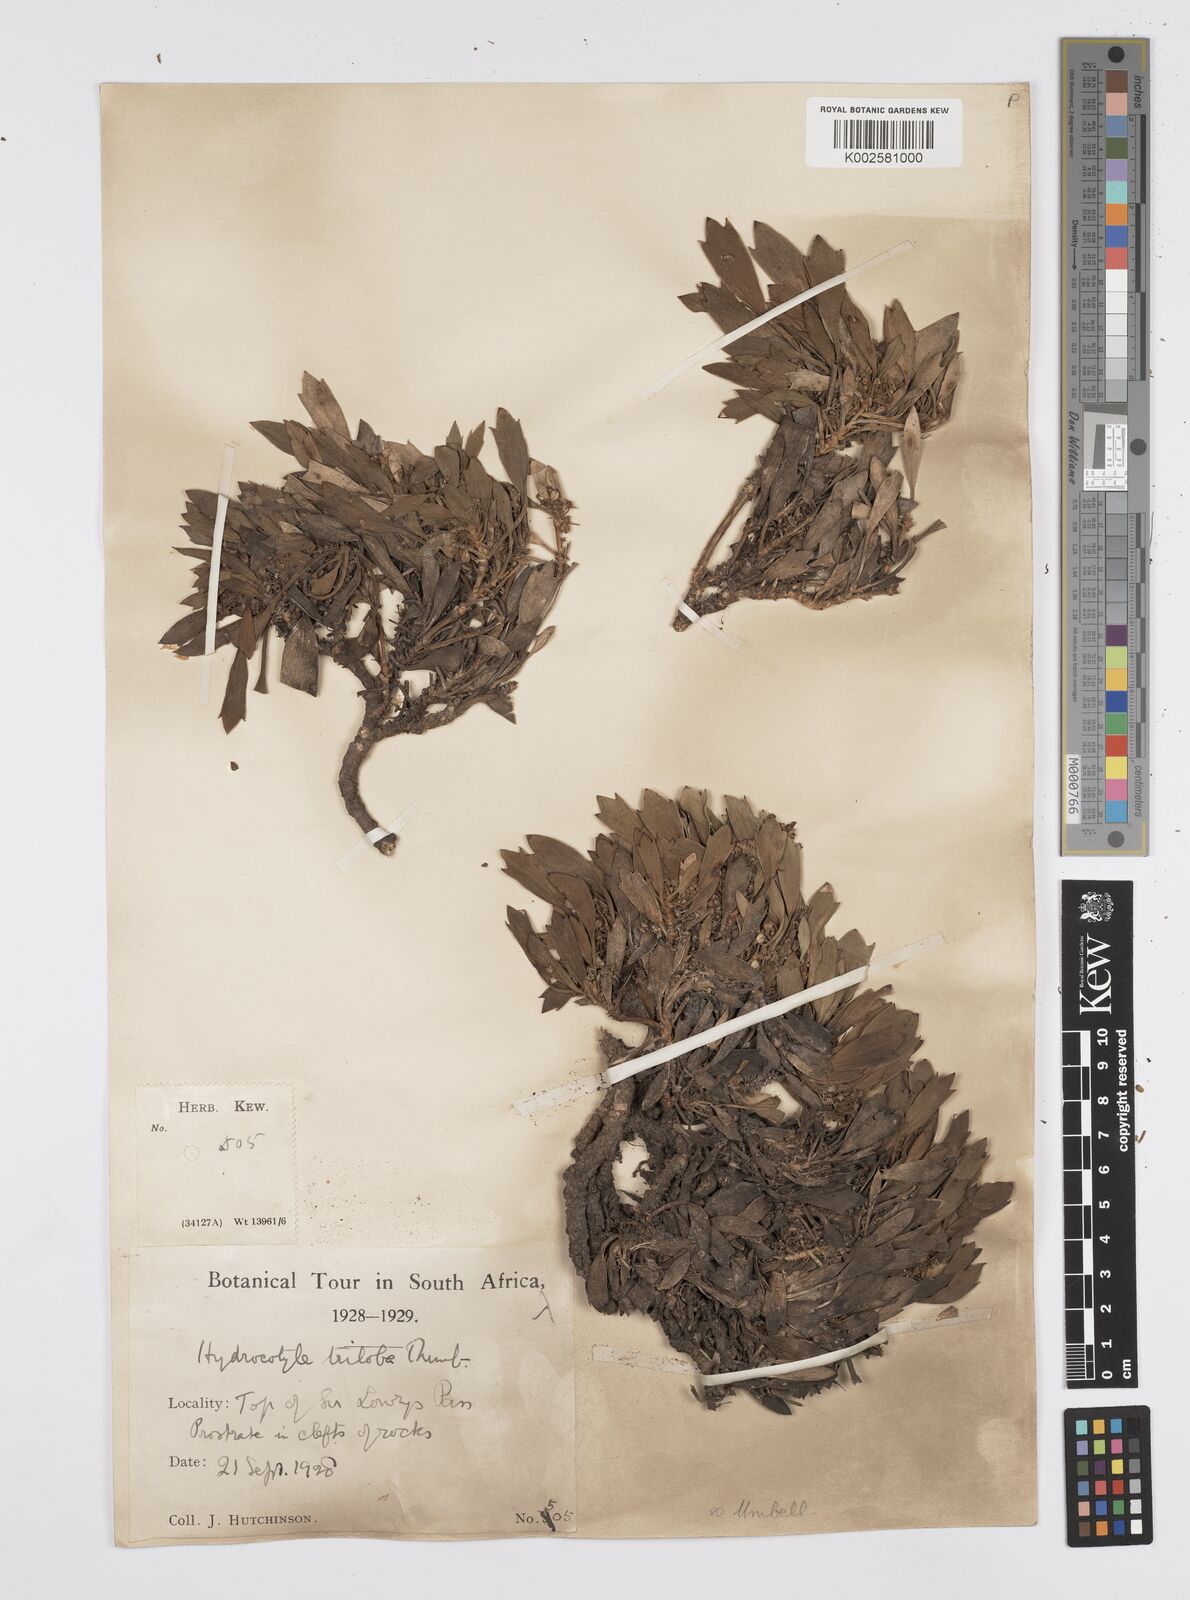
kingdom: Plantae
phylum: Tracheophyta
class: Magnoliopsida
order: Apiales
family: Apiaceae
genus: Centella
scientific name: Centella triloba
